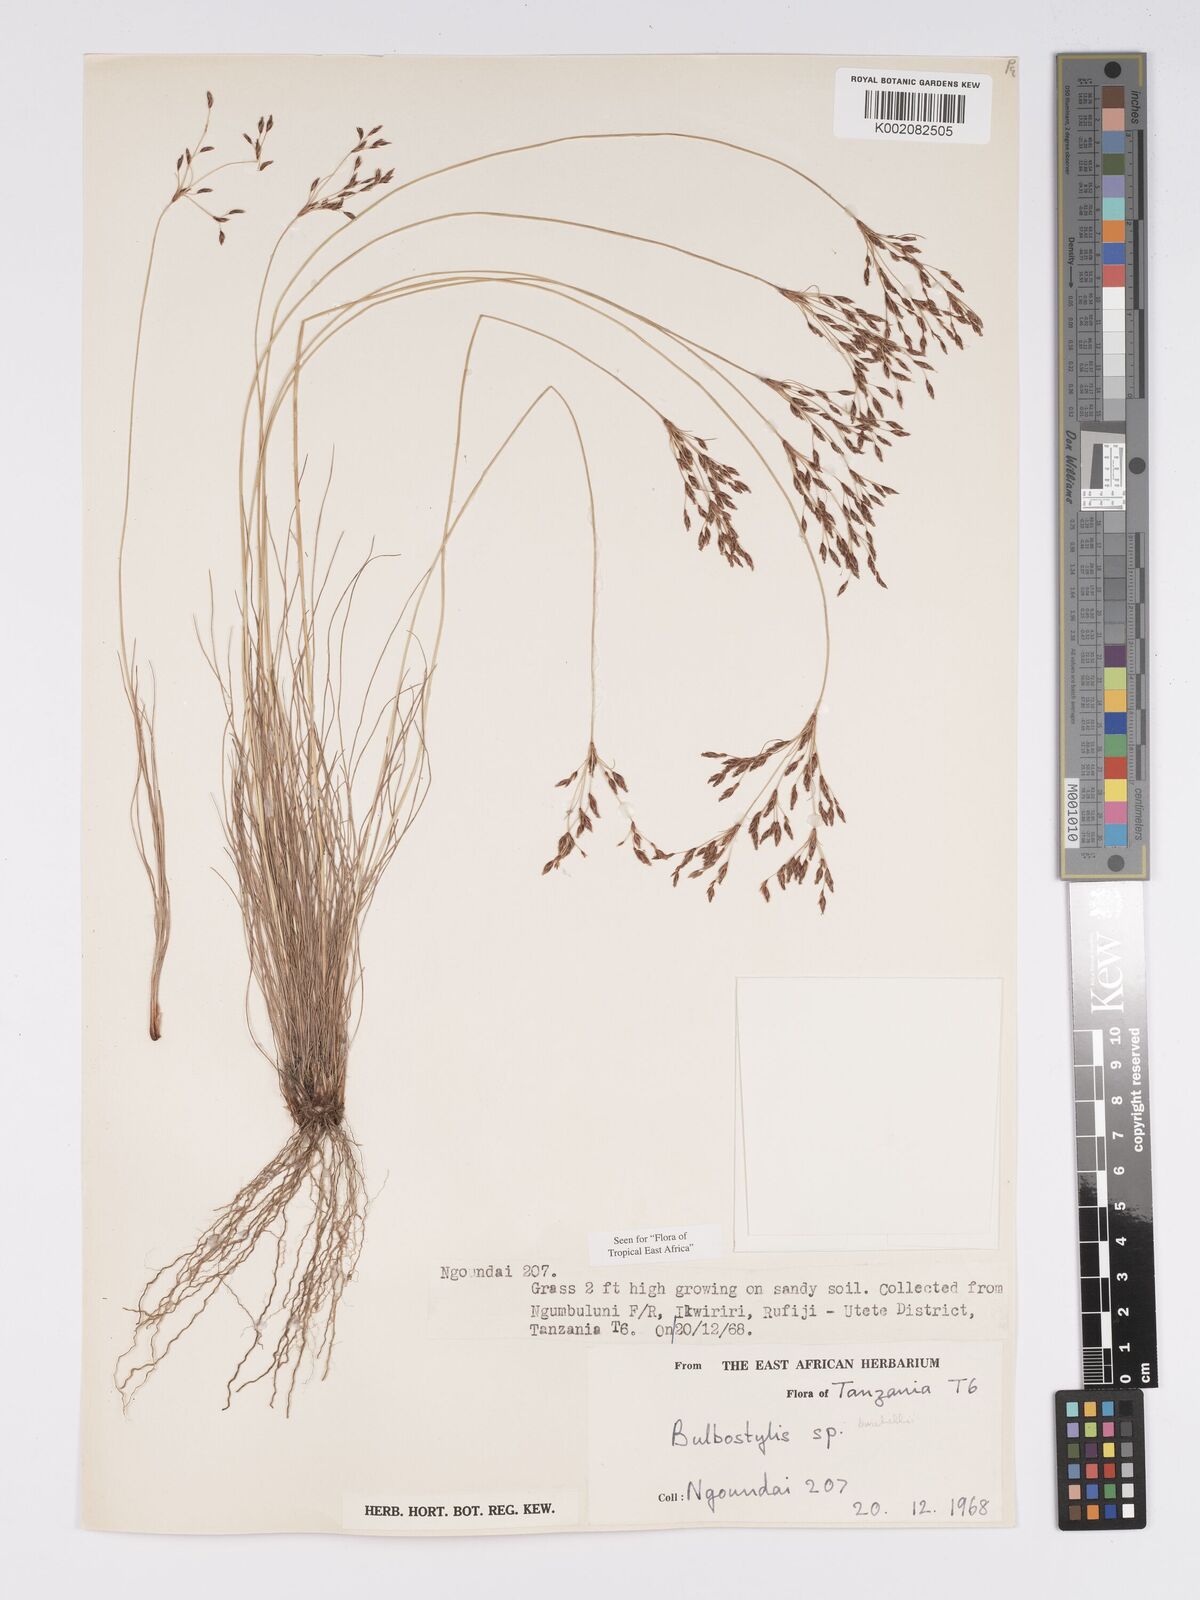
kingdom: Plantae
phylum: Tracheophyta
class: Liliopsida
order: Poales
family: Cyperaceae
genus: Bulbostylis
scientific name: Bulbostylis burchellii
